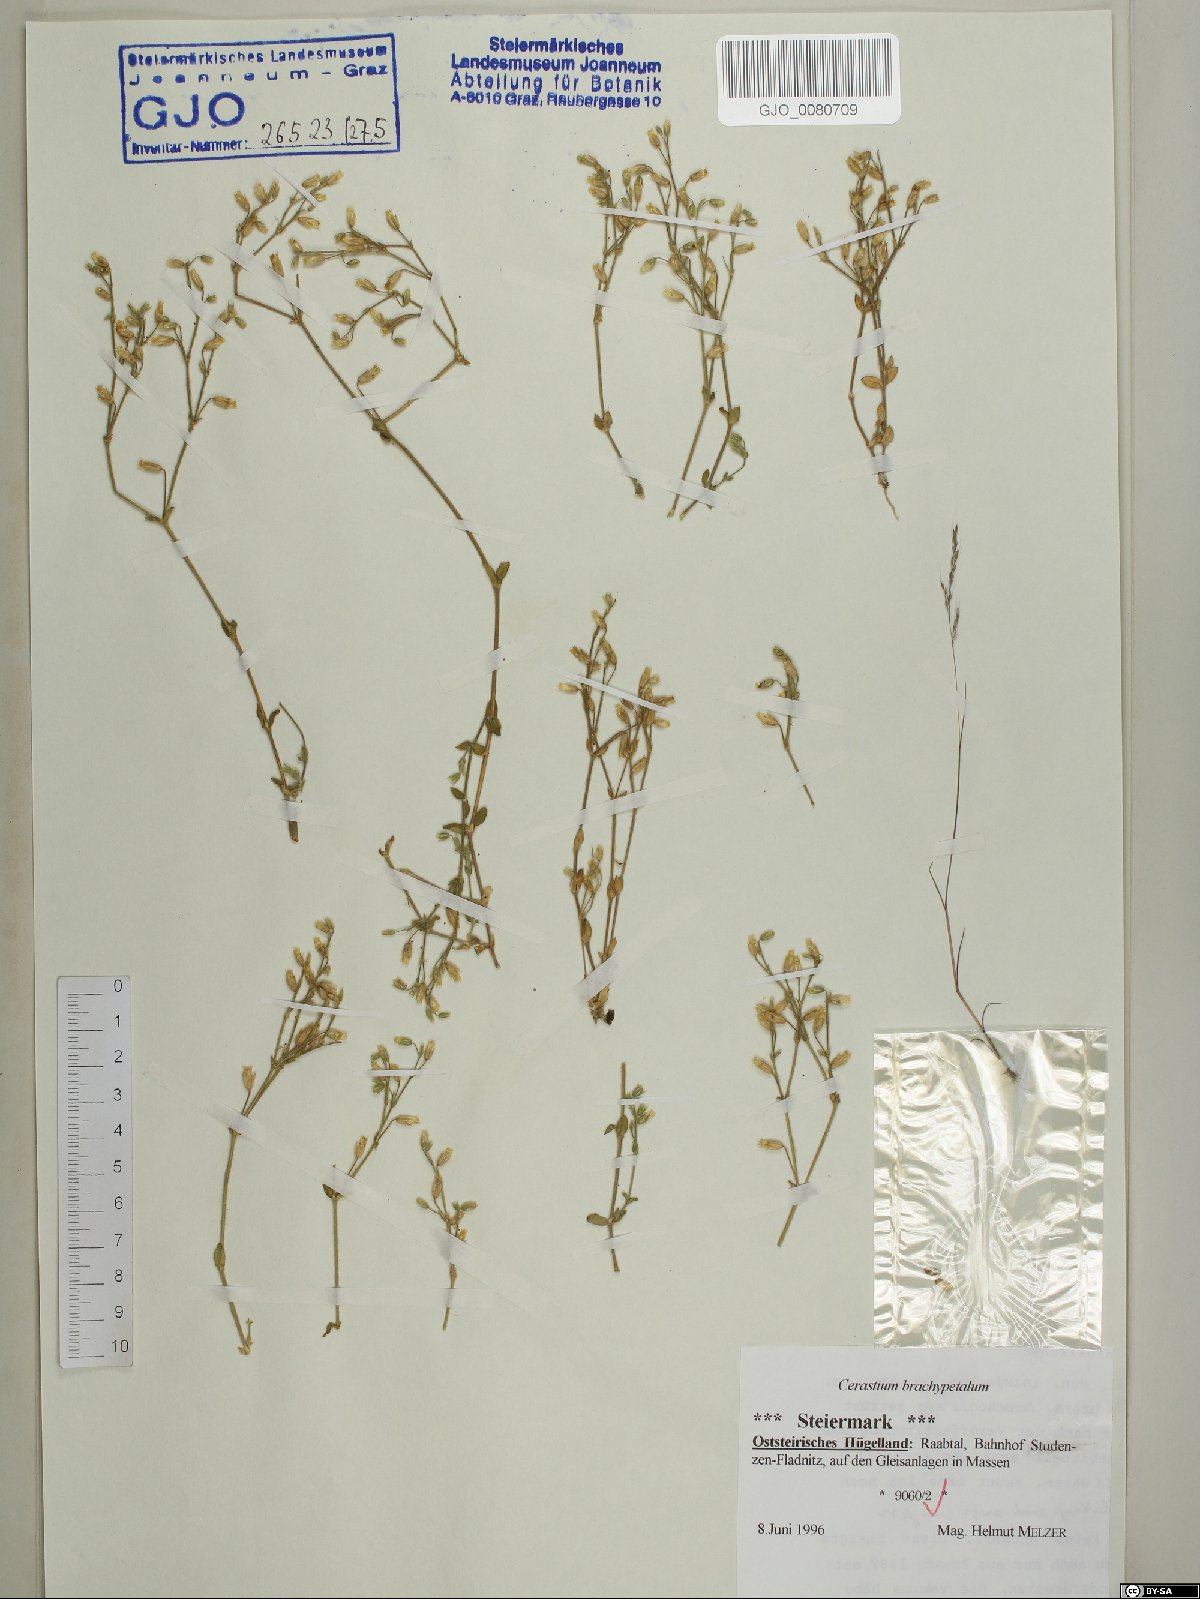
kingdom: Plantae
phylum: Tracheophyta
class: Magnoliopsida
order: Caryophyllales
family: Caryophyllaceae
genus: Cerastium
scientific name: Cerastium brachypetalum
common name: Grey mouse-ear
